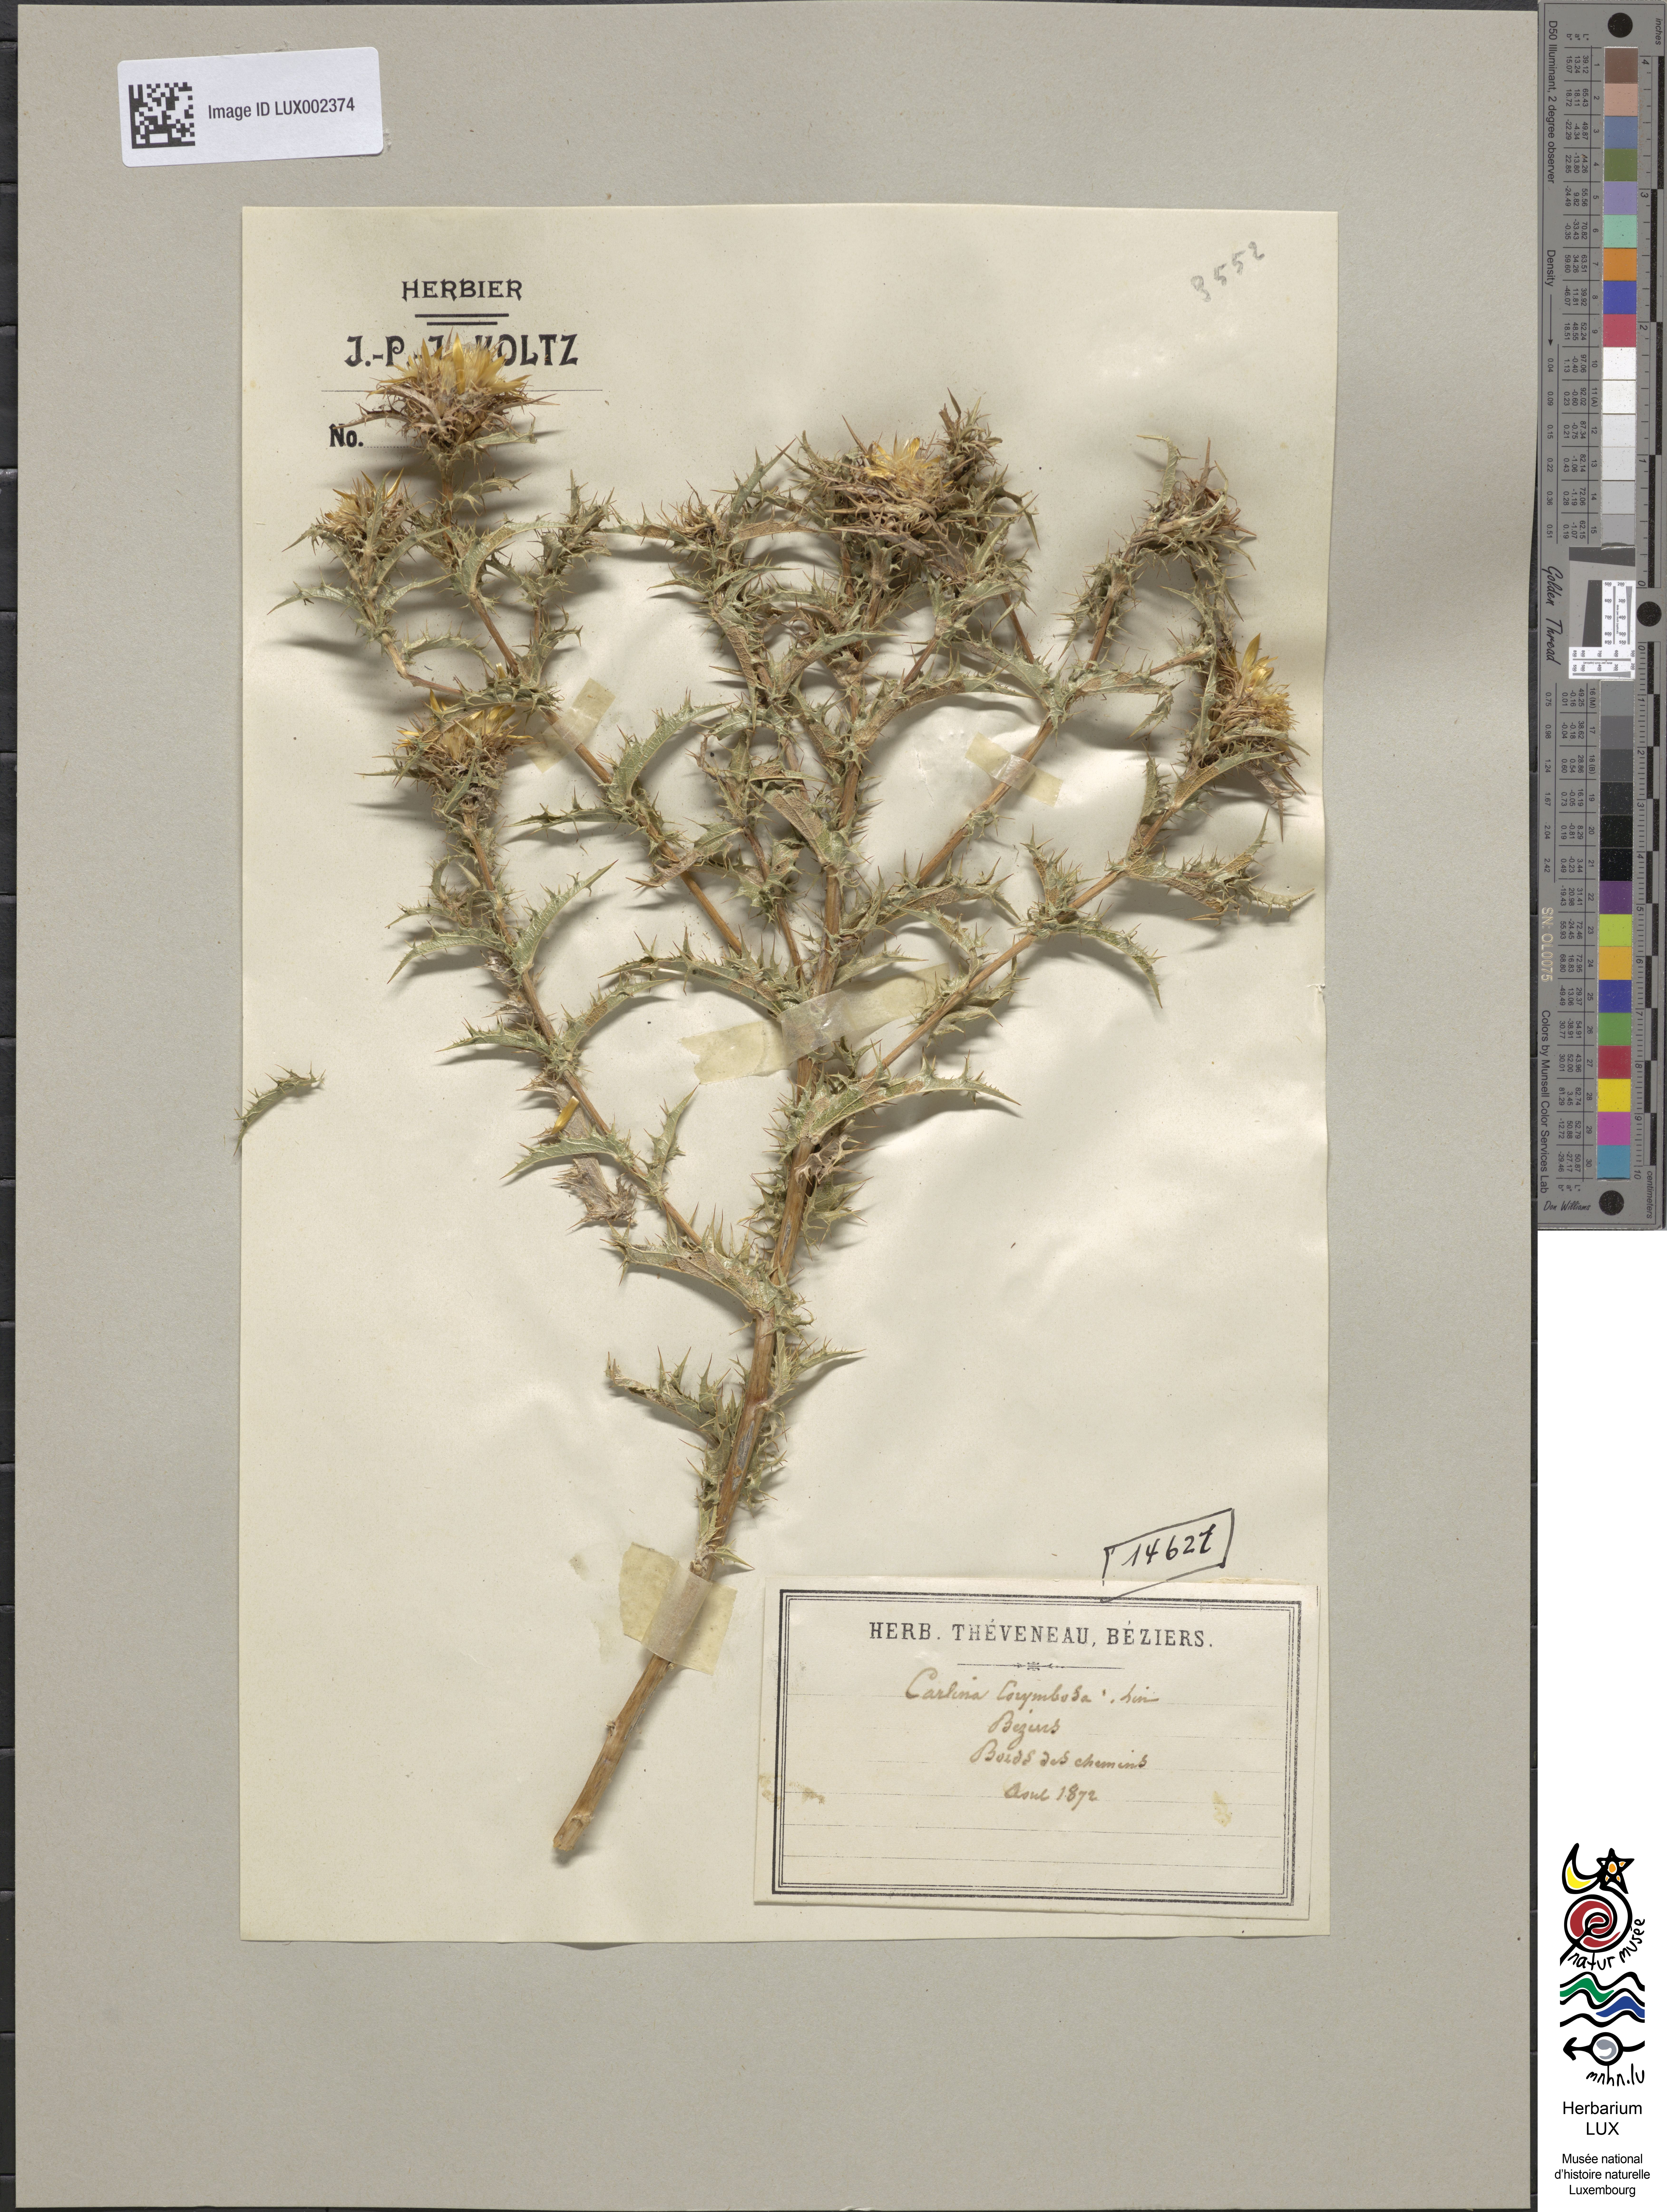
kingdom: Plantae
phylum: Tracheophyta
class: Magnoliopsida
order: Asterales
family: Asteraceae
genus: Carlina
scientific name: Carlina corymbosa
